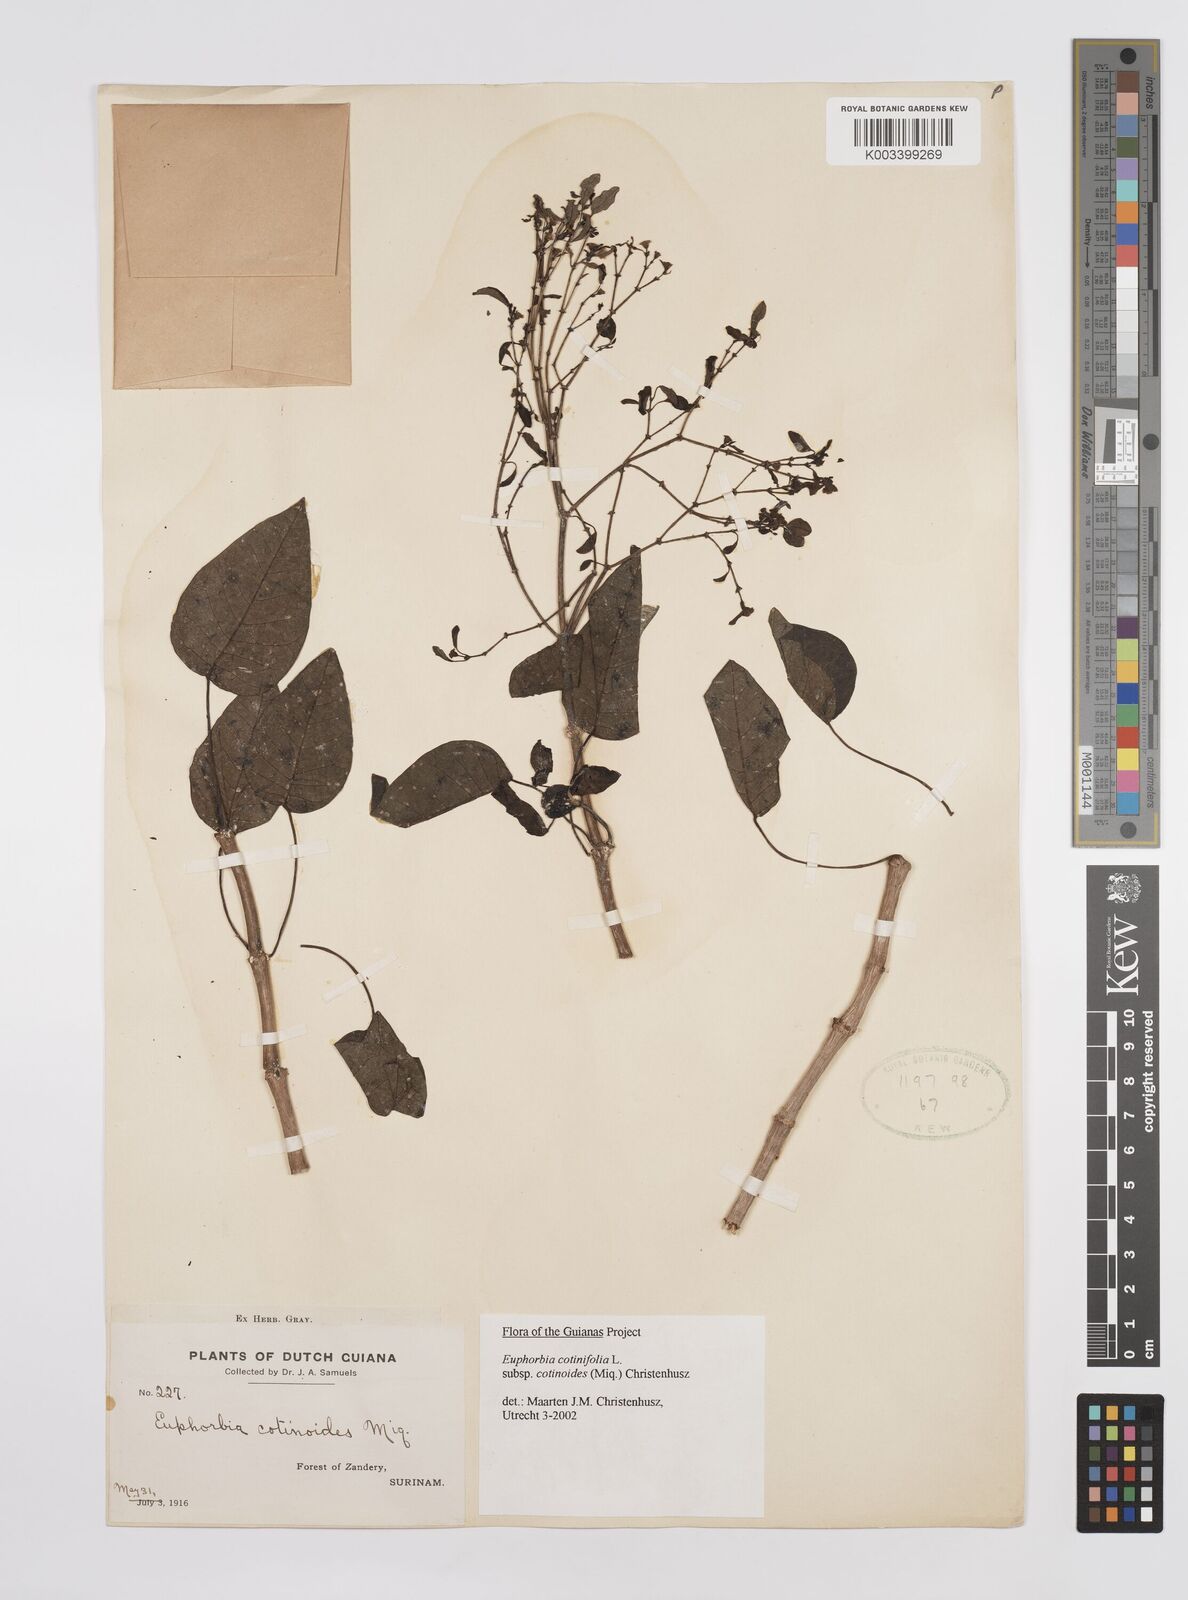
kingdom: Plantae
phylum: Tracheophyta
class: Magnoliopsida
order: Malpighiales
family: Euphorbiaceae
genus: Euphorbia
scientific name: Euphorbia cotinifolia
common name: Tropical smokebush
